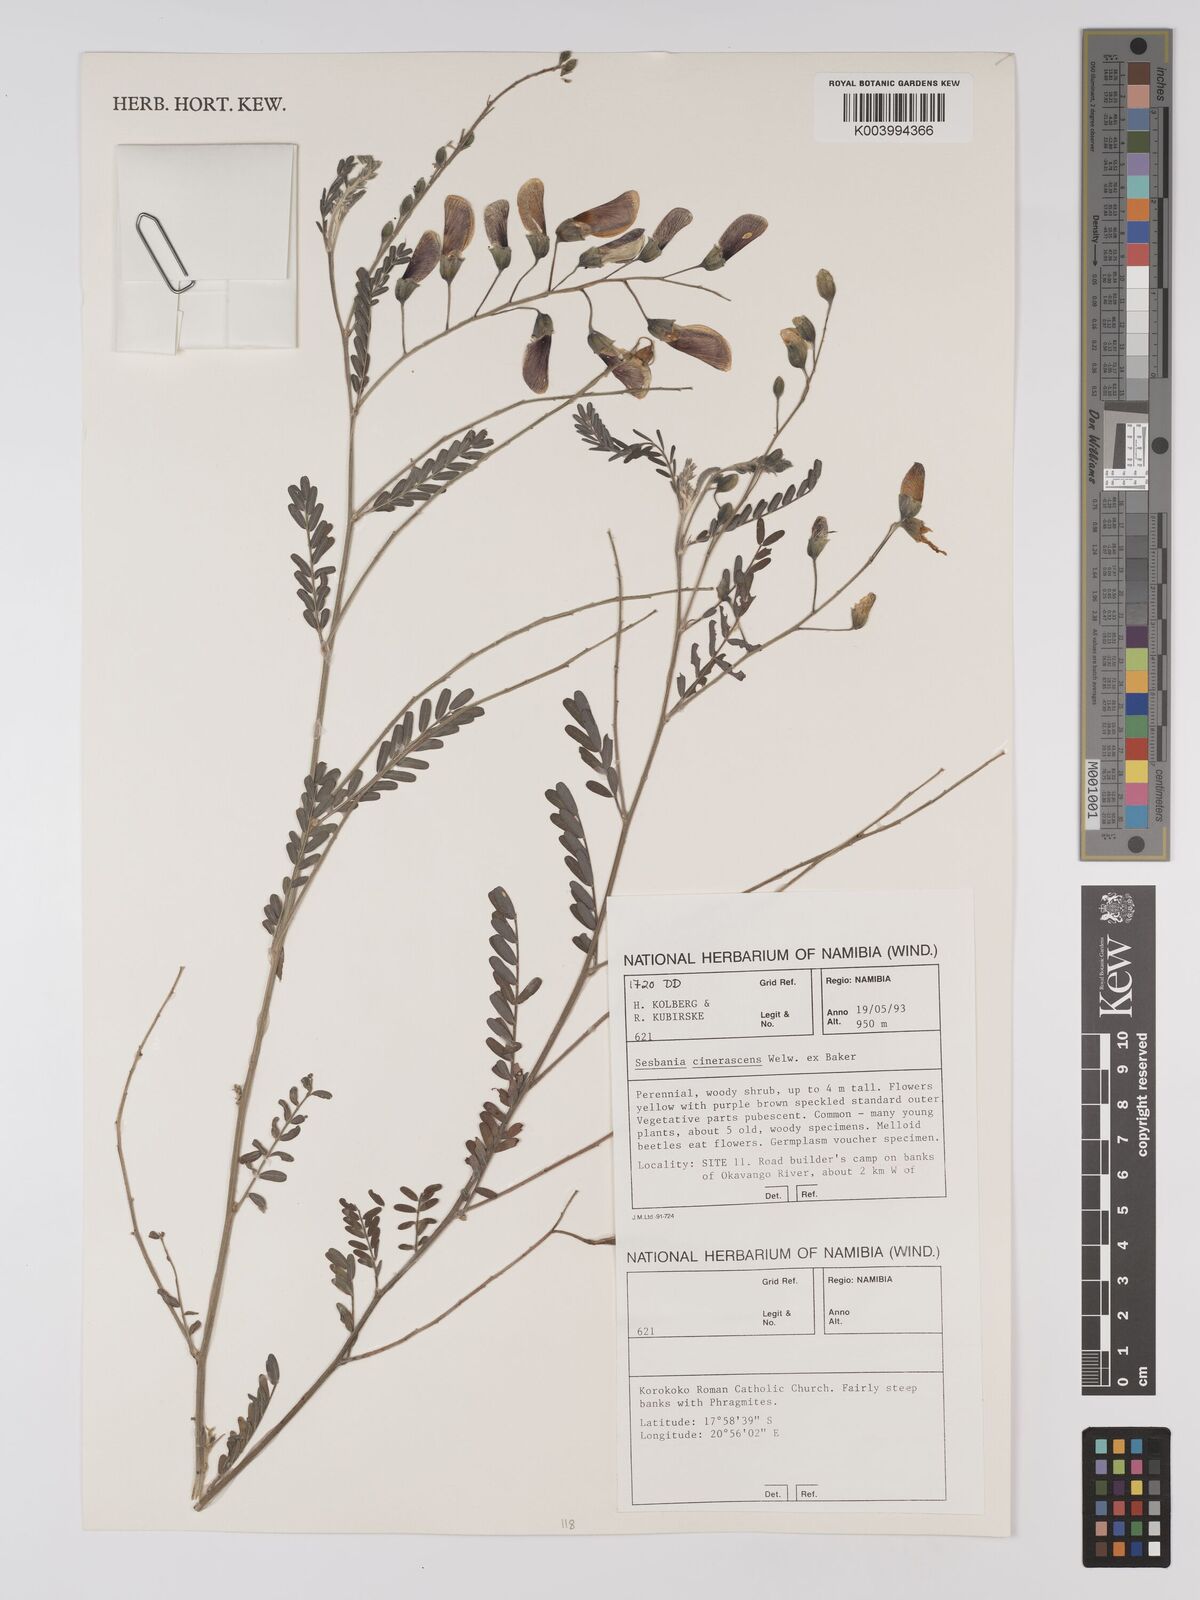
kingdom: Plantae
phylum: Tracheophyta
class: Magnoliopsida
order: Fabales
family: Fabaceae
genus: Sesbania
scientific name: Sesbania cinerascens
